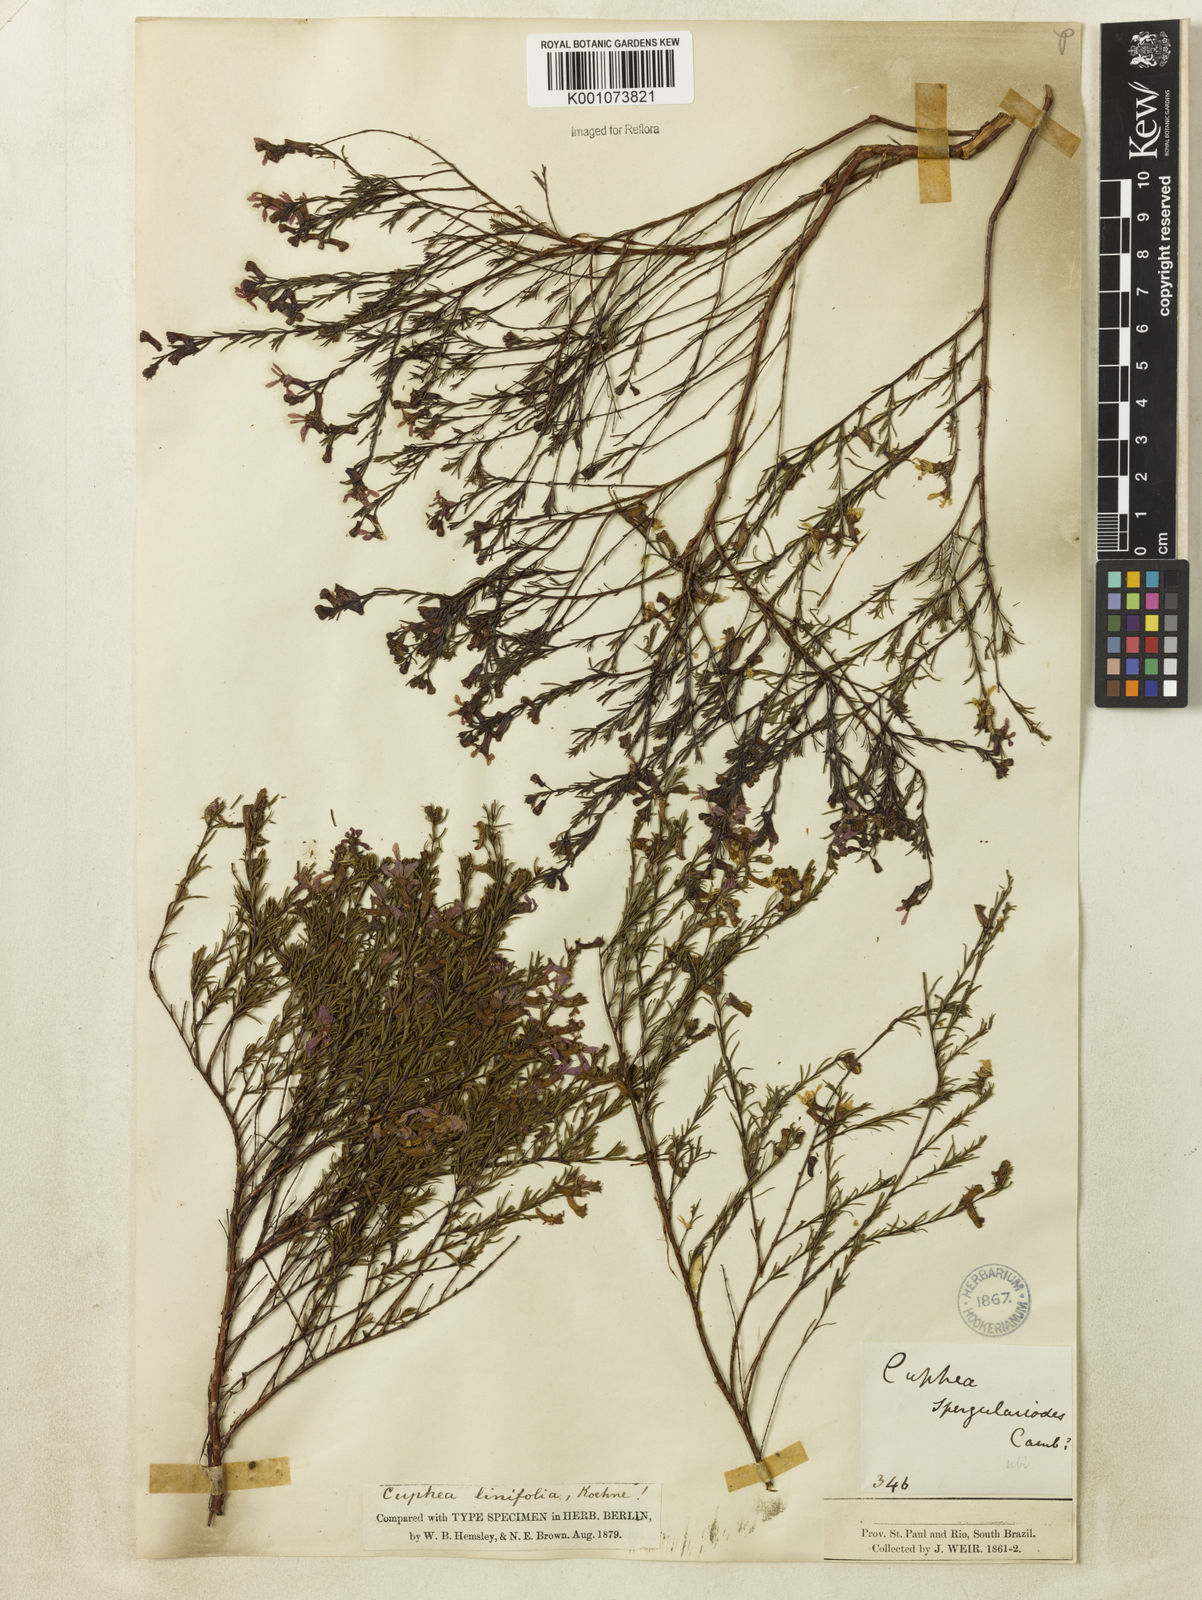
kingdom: Plantae
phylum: Tracheophyta
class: Magnoliopsida
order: Myrtales
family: Lythraceae
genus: Cuphea
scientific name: Cuphea linifolia
